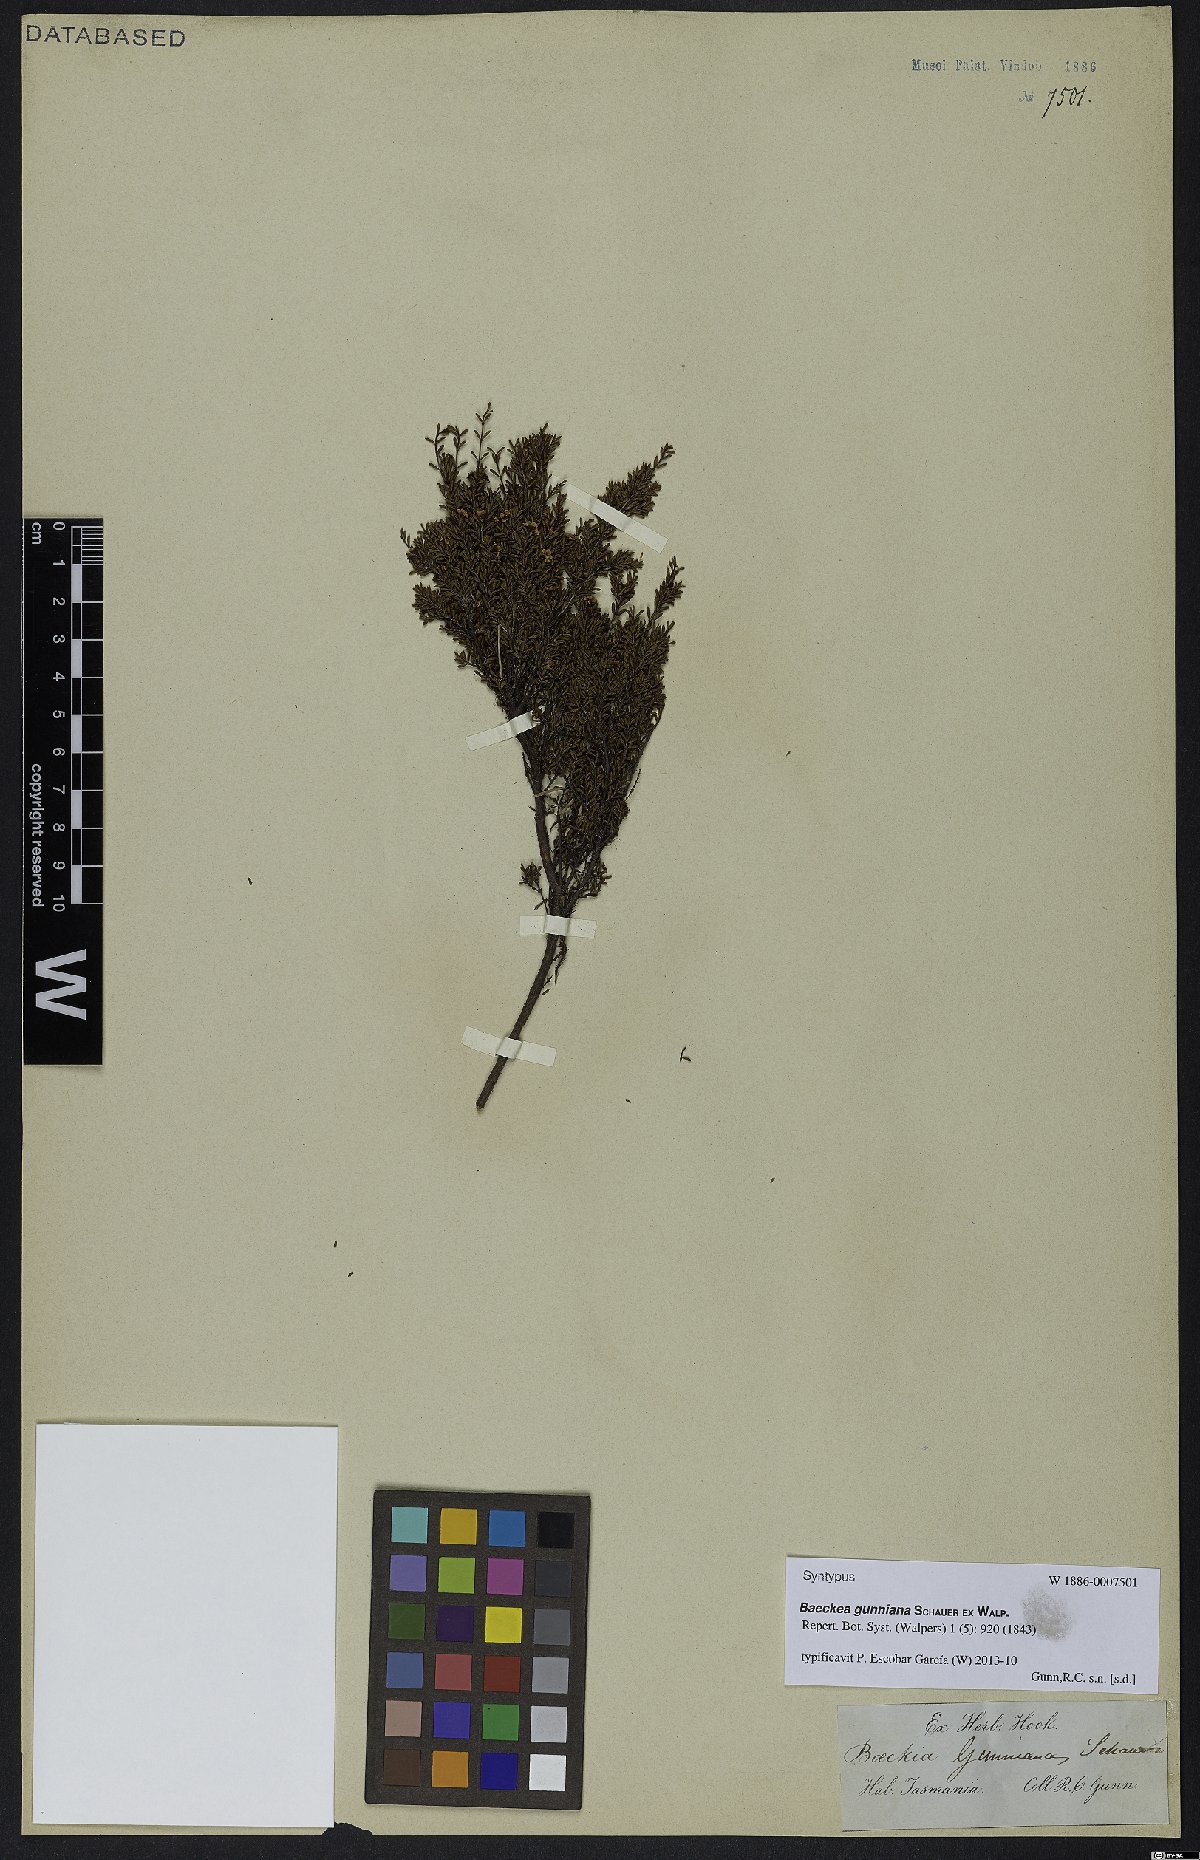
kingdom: Plantae
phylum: Tracheophyta
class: Magnoliopsida
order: Myrtales
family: Myrtaceae
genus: Baeckea
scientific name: Baeckea gunniana
